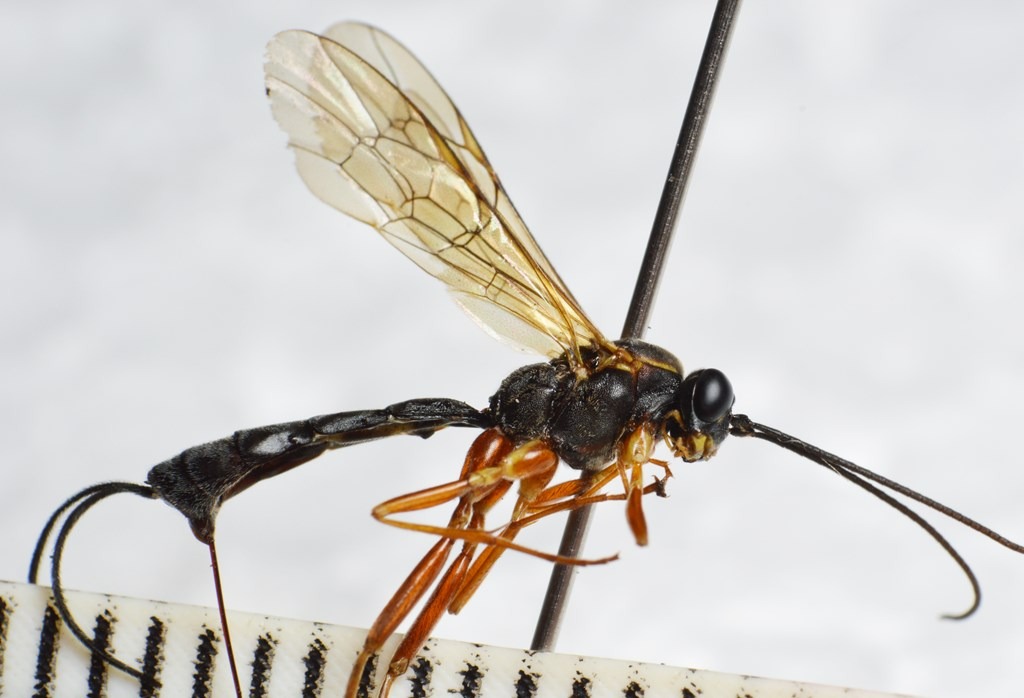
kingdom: Animalia
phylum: Arthropoda
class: Insecta
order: Hymenoptera
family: Ichneumonidae
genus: Lissonota
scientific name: Lissonota lineolaris
